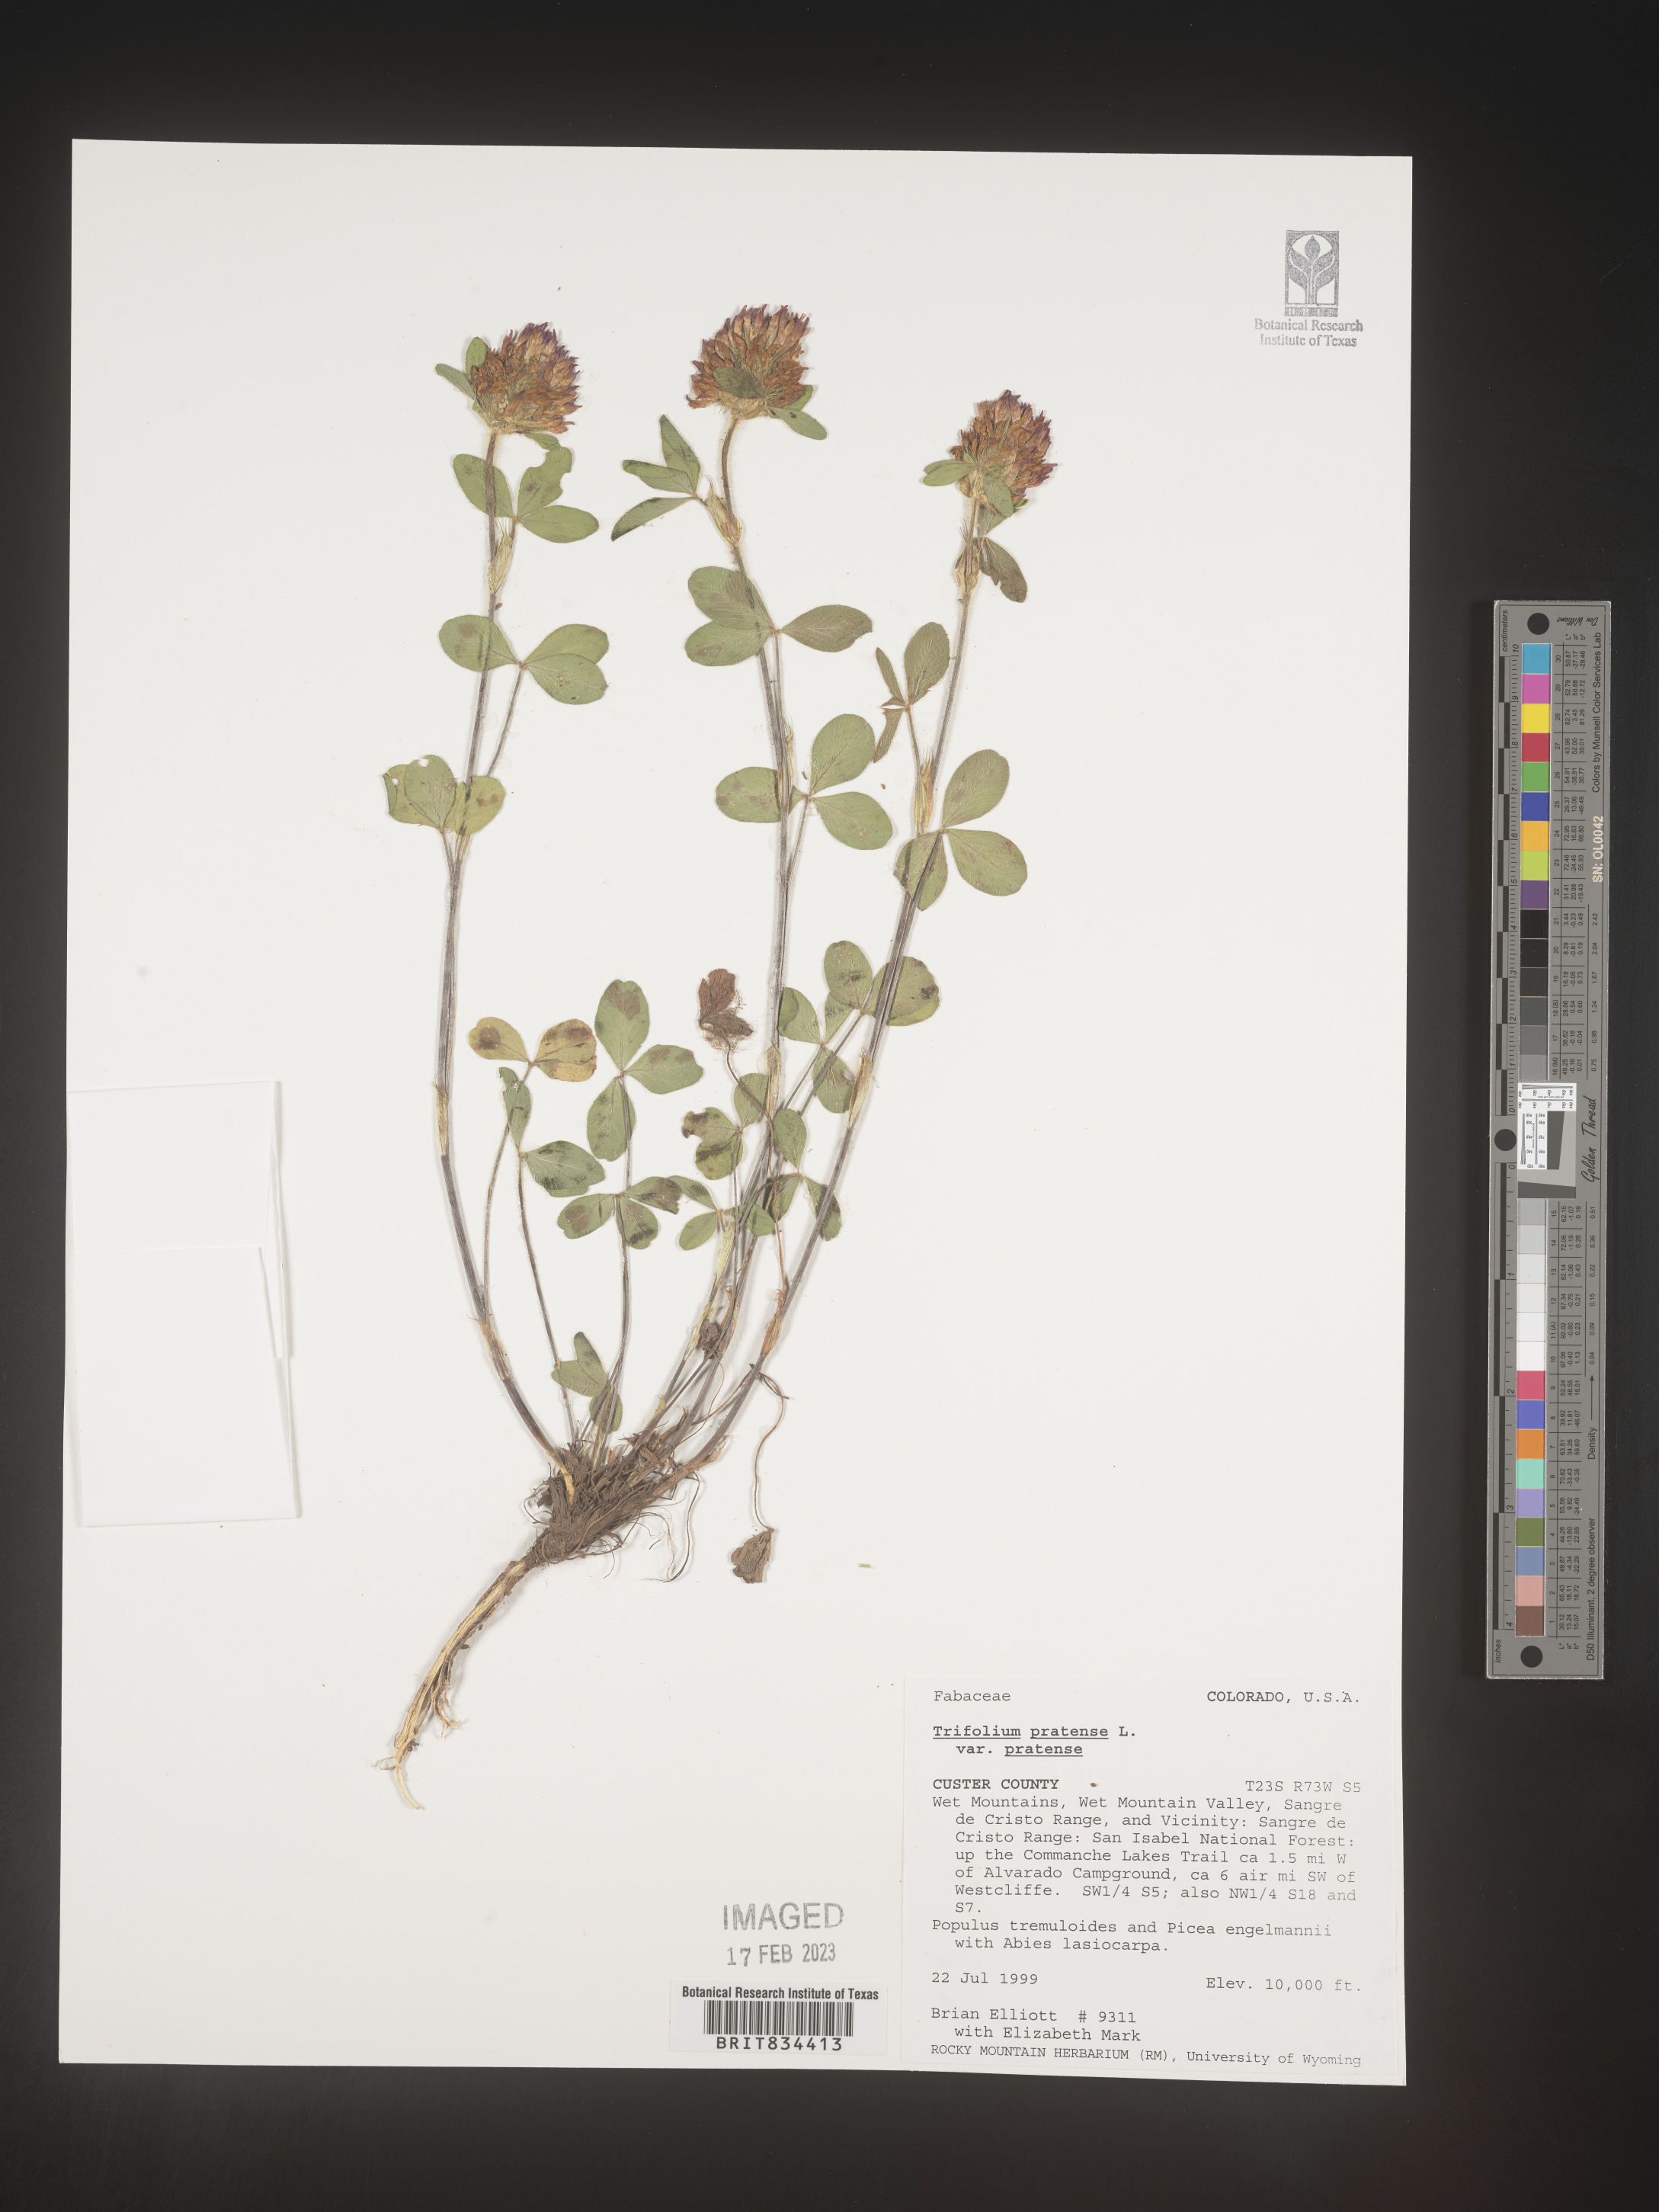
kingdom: Plantae
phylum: Tracheophyta
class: Magnoliopsida
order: Fabales
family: Fabaceae
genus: Trifolium
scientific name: Trifolium pratense
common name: Red clover
